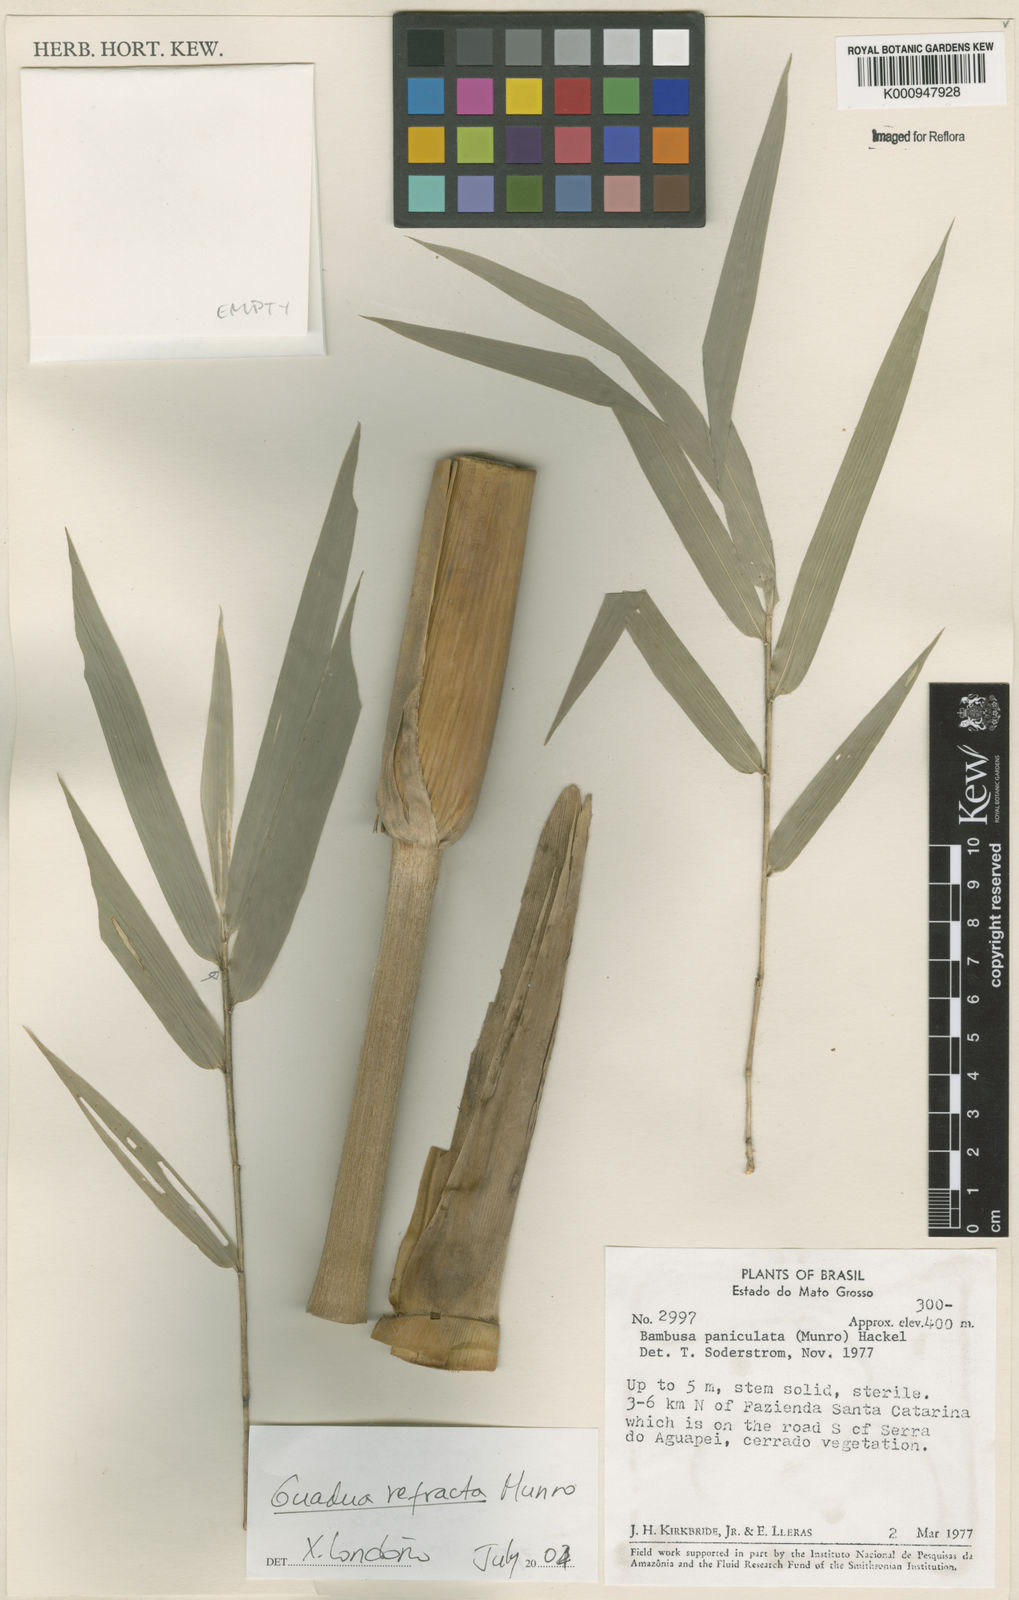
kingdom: Plantae
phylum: Tracheophyta
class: Liliopsida
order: Poales
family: Poaceae
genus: Guadua
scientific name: Guadua
